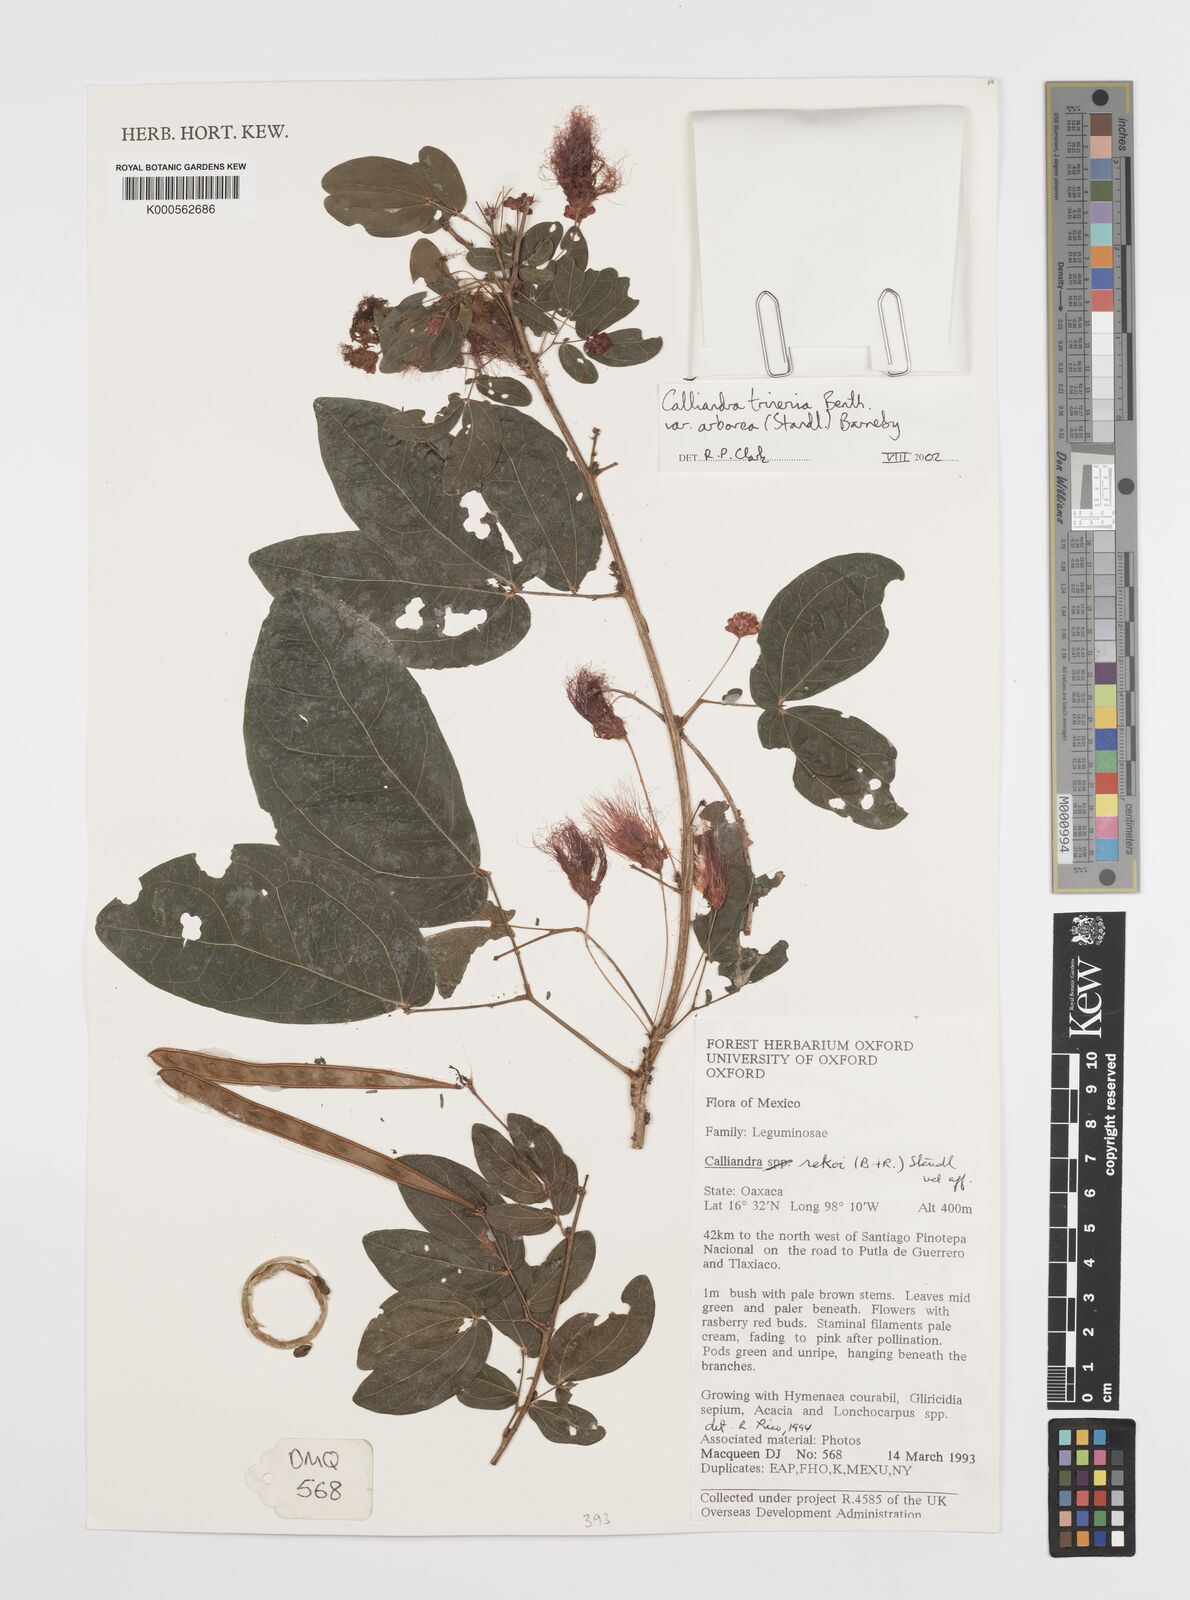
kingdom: Plantae
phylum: Tracheophyta
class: Magnoliopsida
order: Fabales
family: Fabaceae
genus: Calliandra
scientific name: Calliandra trinervia
